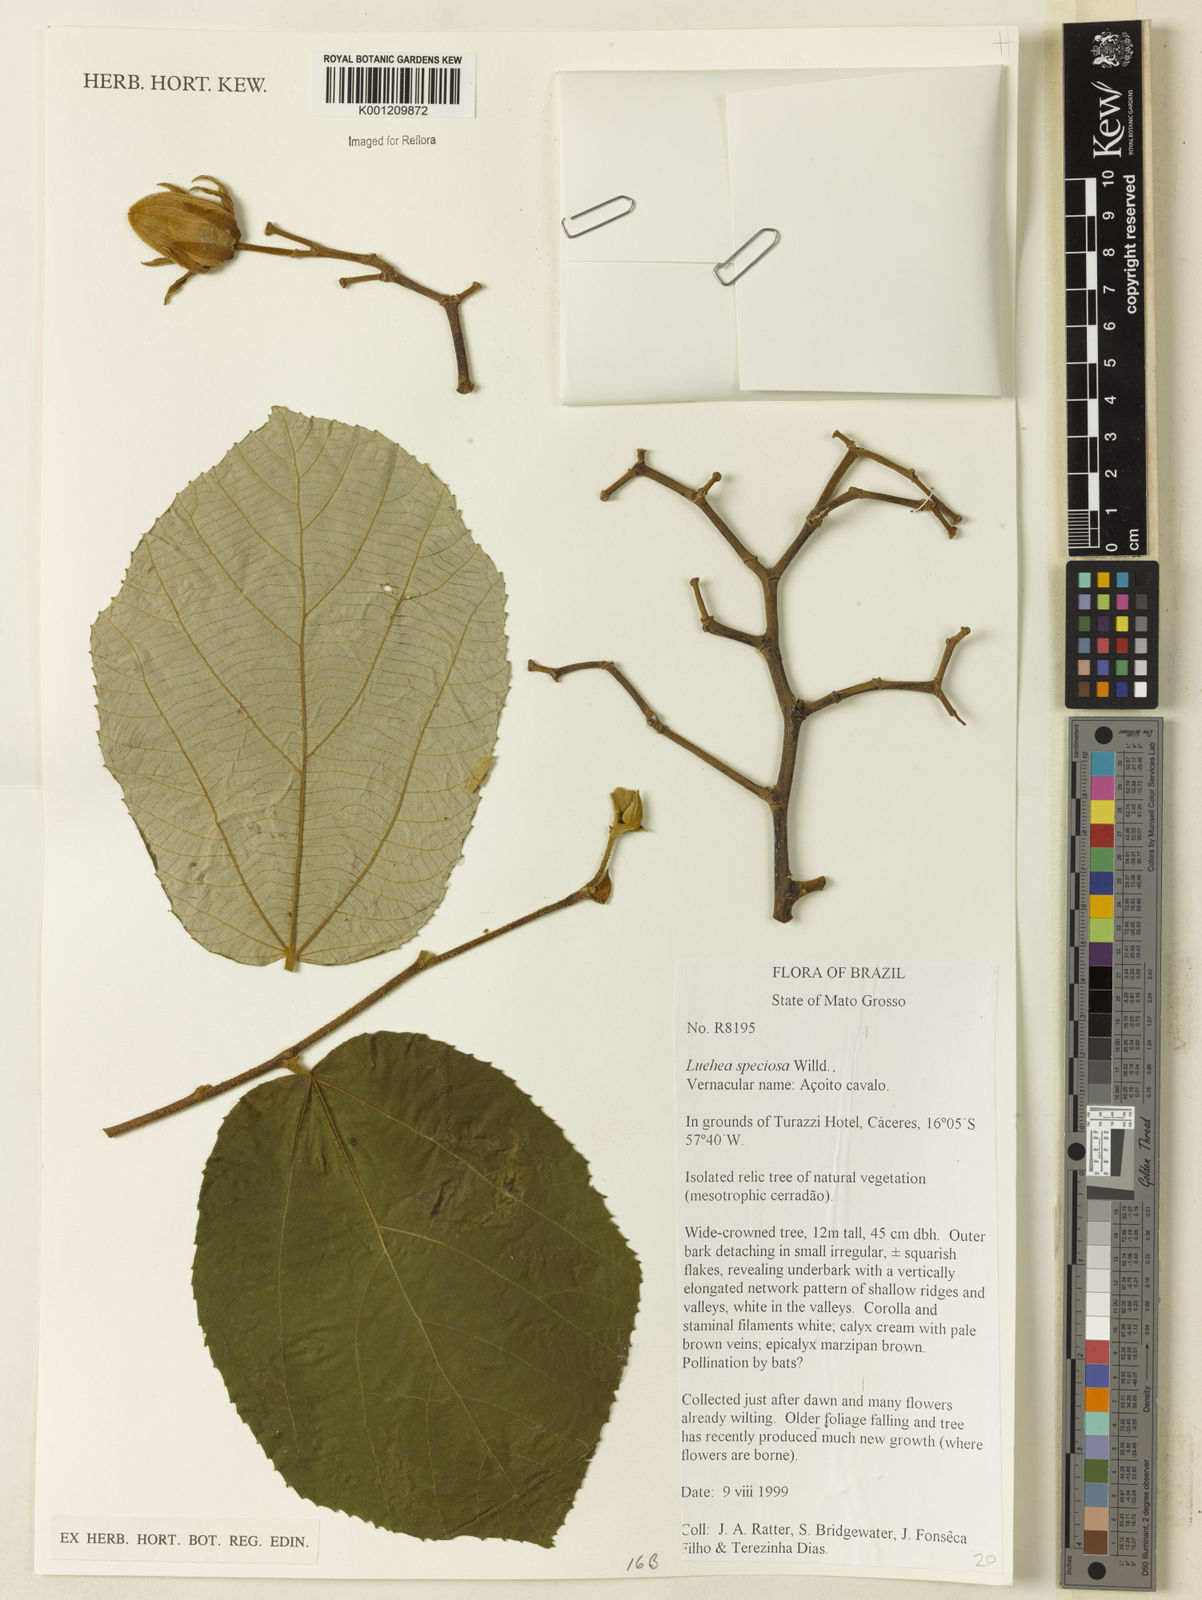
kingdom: Plantae
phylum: Tracheophyta
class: Magnoliopsida
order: Malvales
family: Malvaceae
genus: Luehea
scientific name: Luehea speciosa
